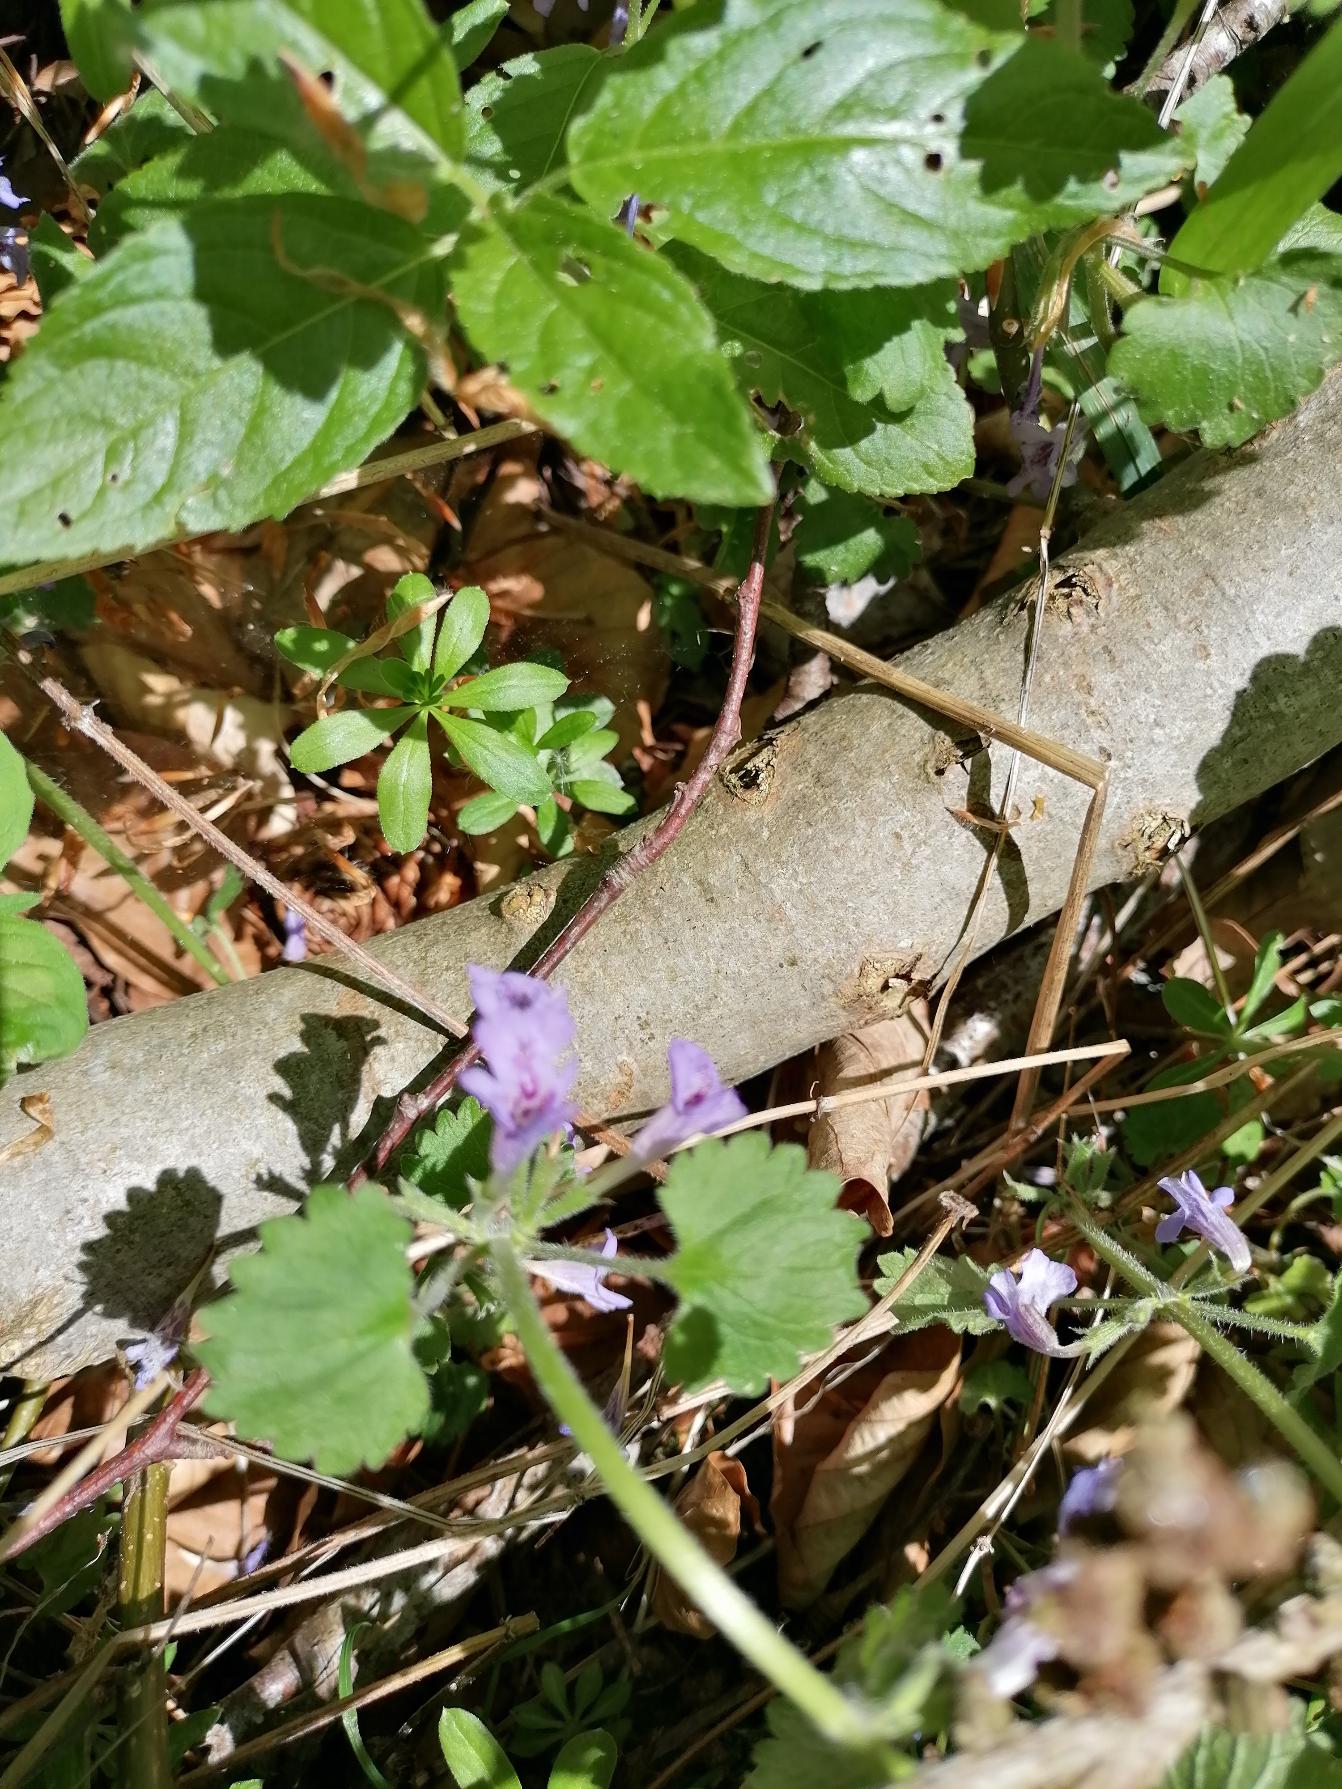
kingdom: Plantae
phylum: Tracheophyta
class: Magnoliopsida
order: Lamiales
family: Lamiaceae
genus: Glechoma
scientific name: Glechoma hederacea
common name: Korsknap
